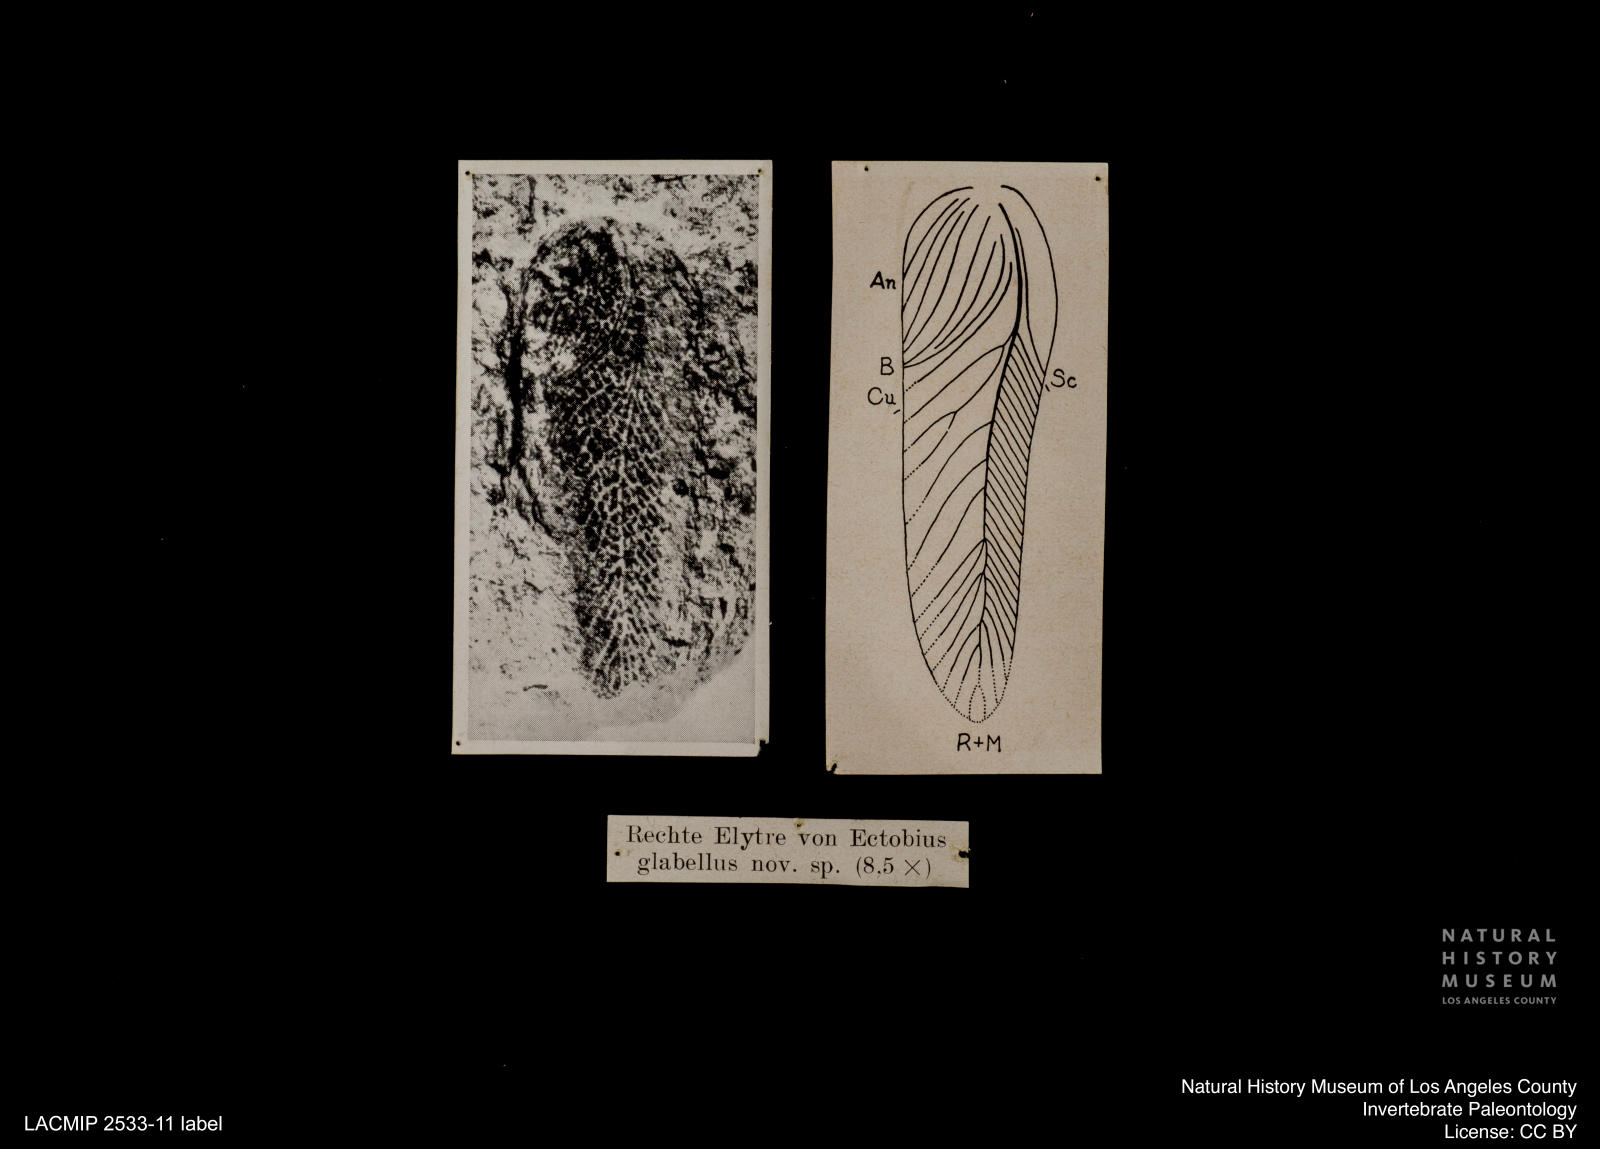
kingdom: Animalia
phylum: Arthropoda
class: Insecta
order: Blattodea
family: Ectobiidae
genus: Ectobius
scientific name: Ectobius glabellus
